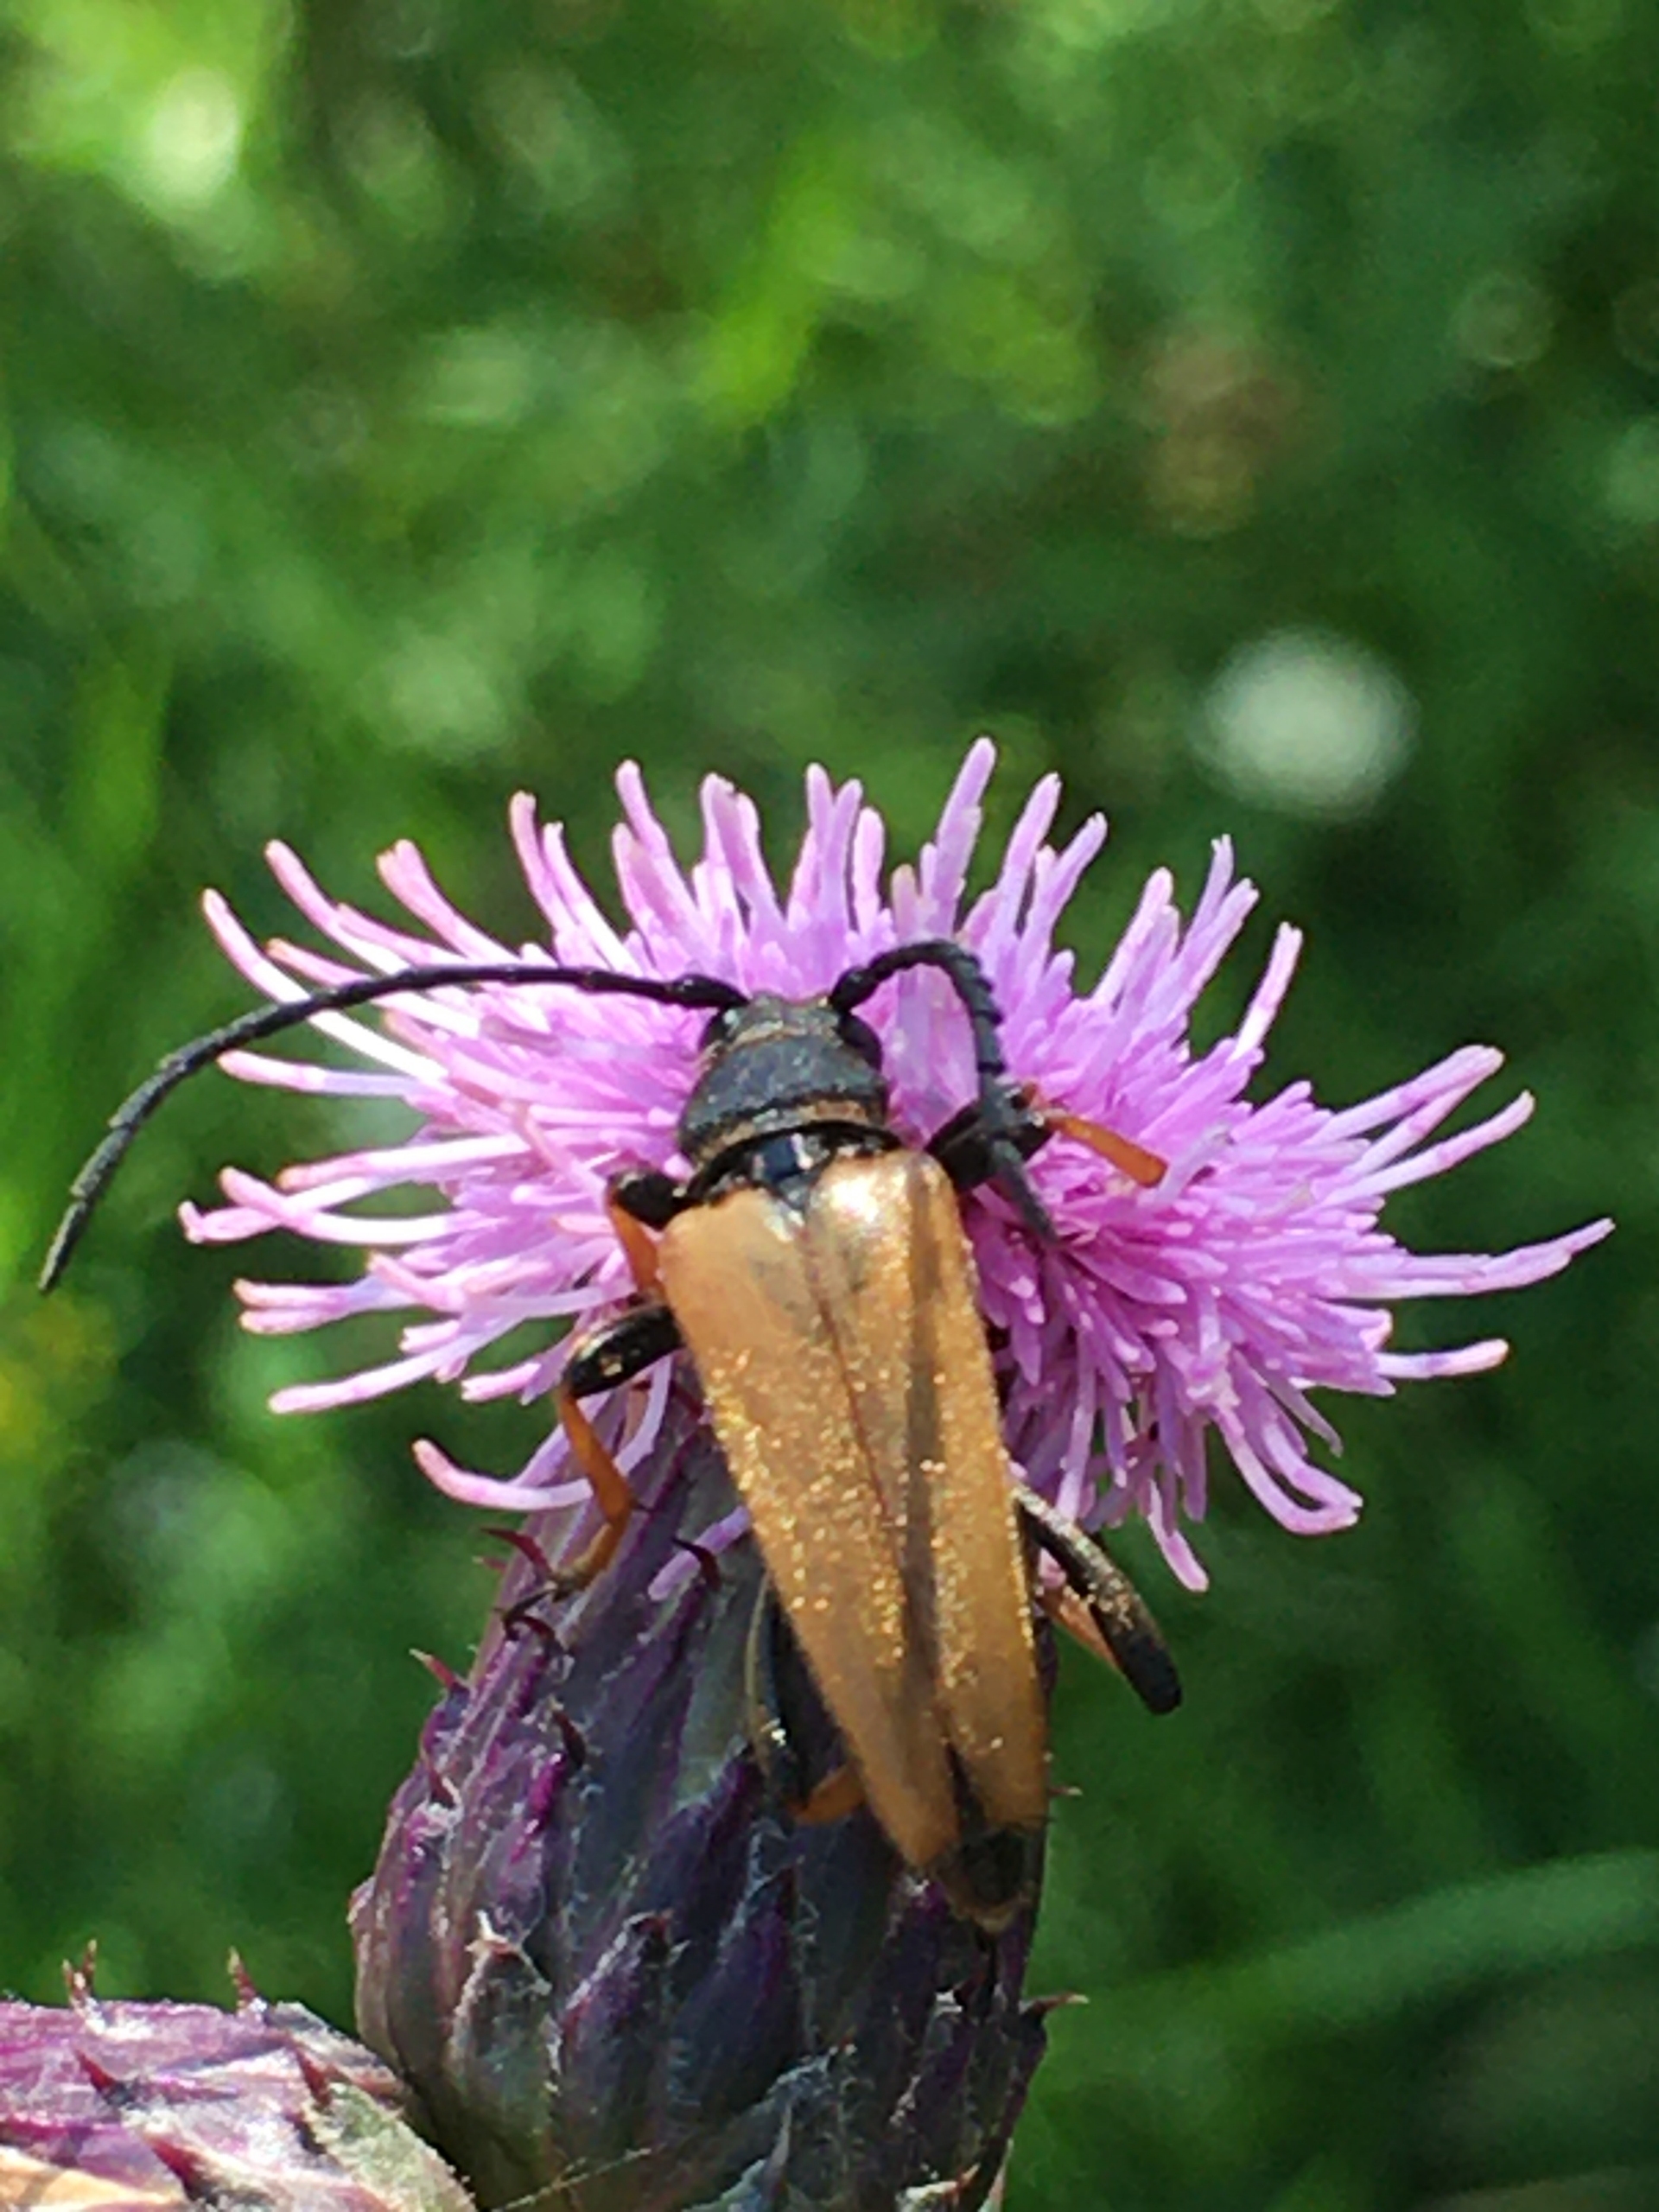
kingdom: Animalia
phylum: Arthropoda
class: Insecta
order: Coleoptera
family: Cerambycidae
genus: Stictoleptura
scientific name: Stictoleptura rubra
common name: Rød blomsterbuk
